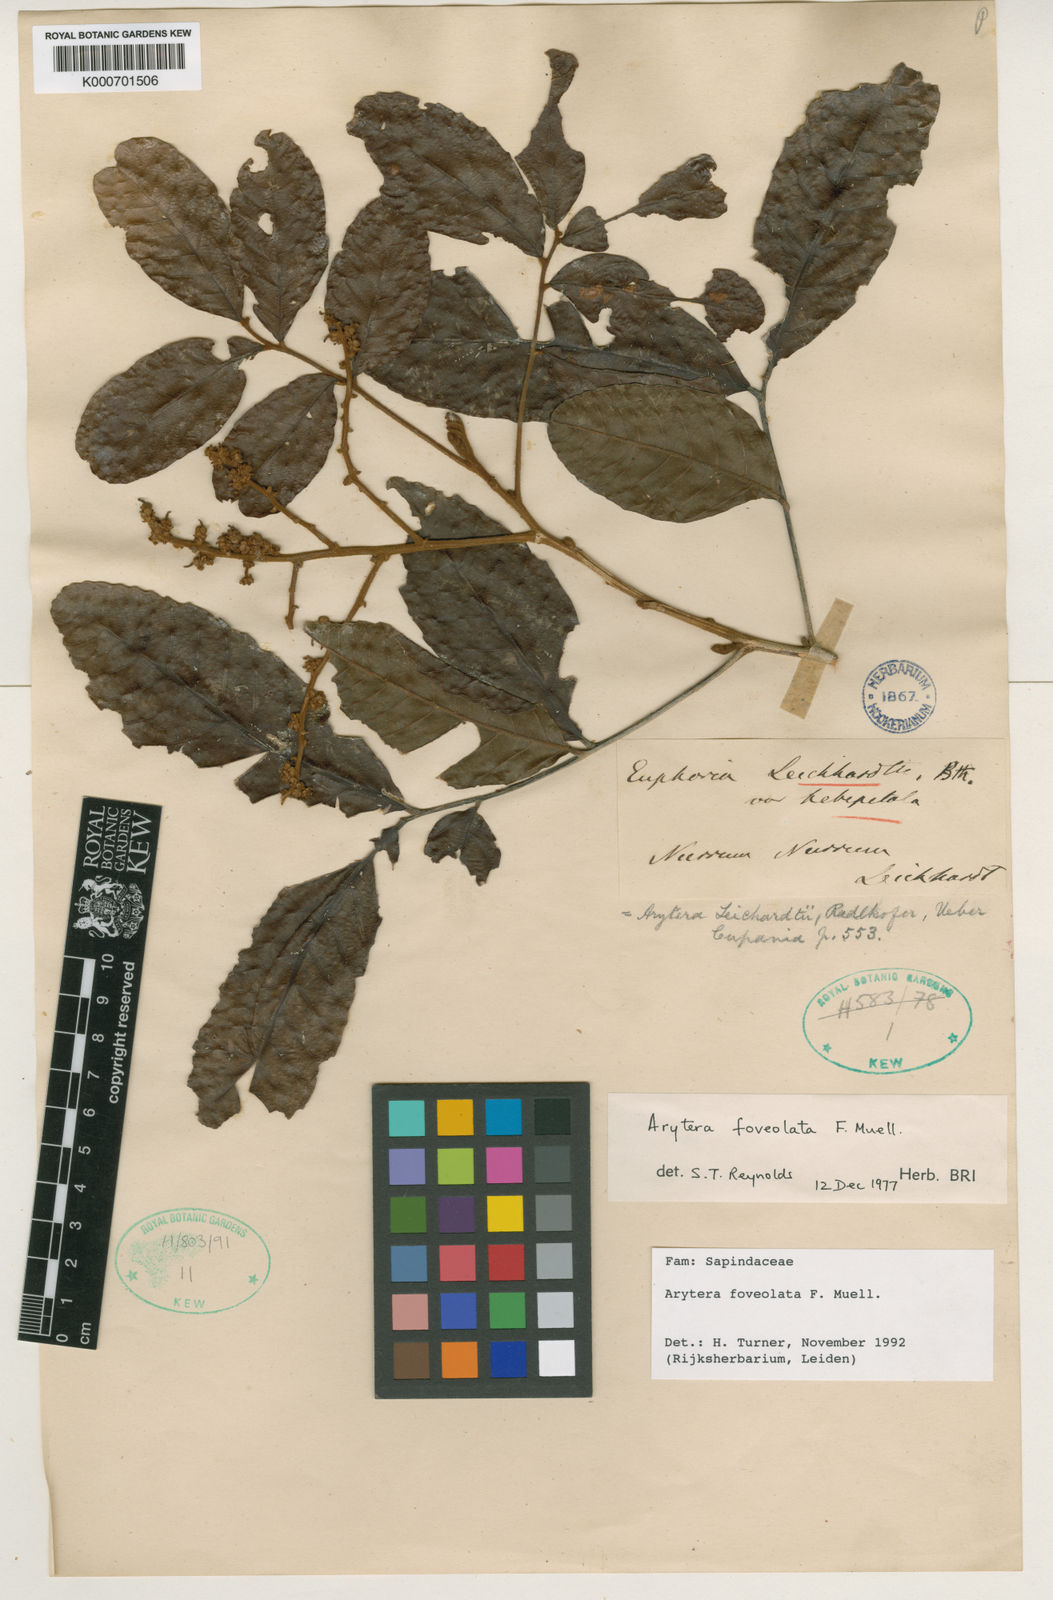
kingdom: Plantae
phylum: Tracheophyta
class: Magnoliopsida
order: Sapindales
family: Sapindaceae
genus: Arytera
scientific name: Arytera foveolata
